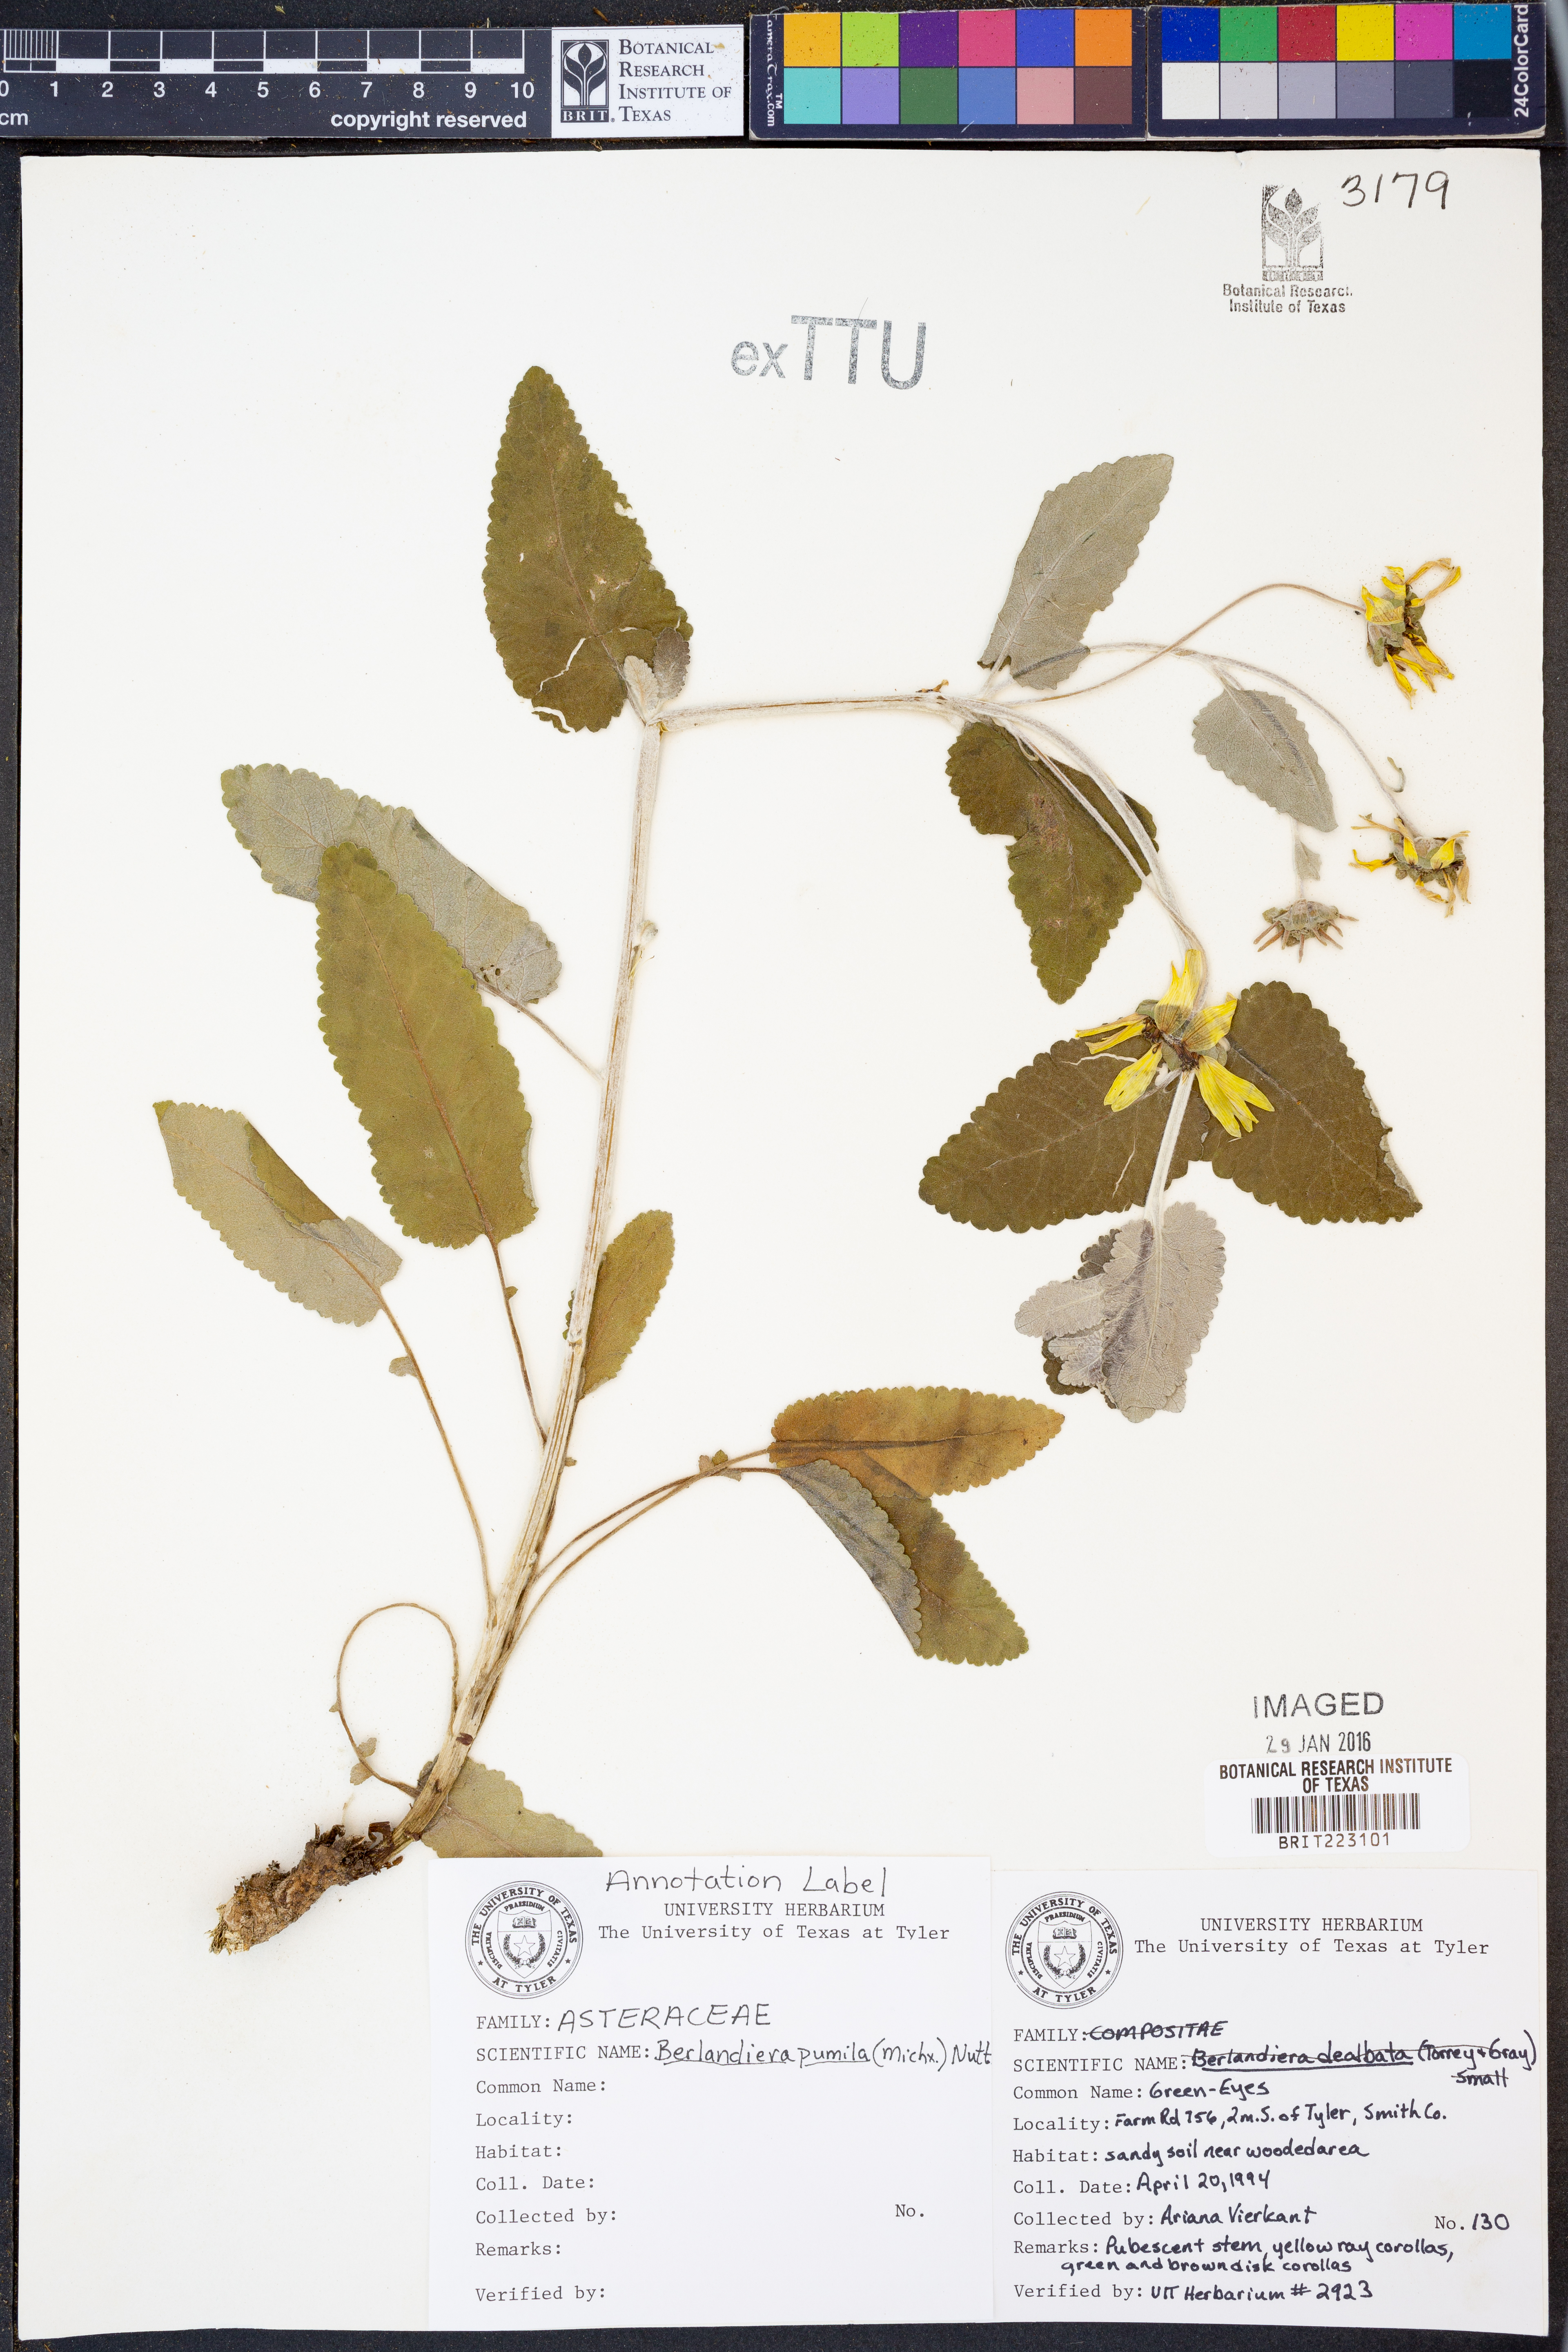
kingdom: Plantae
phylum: Tracheophyta
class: Magnoliopsida
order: Asterales
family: Asteraceae
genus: Berlandiera
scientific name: Berlandiera pumila
